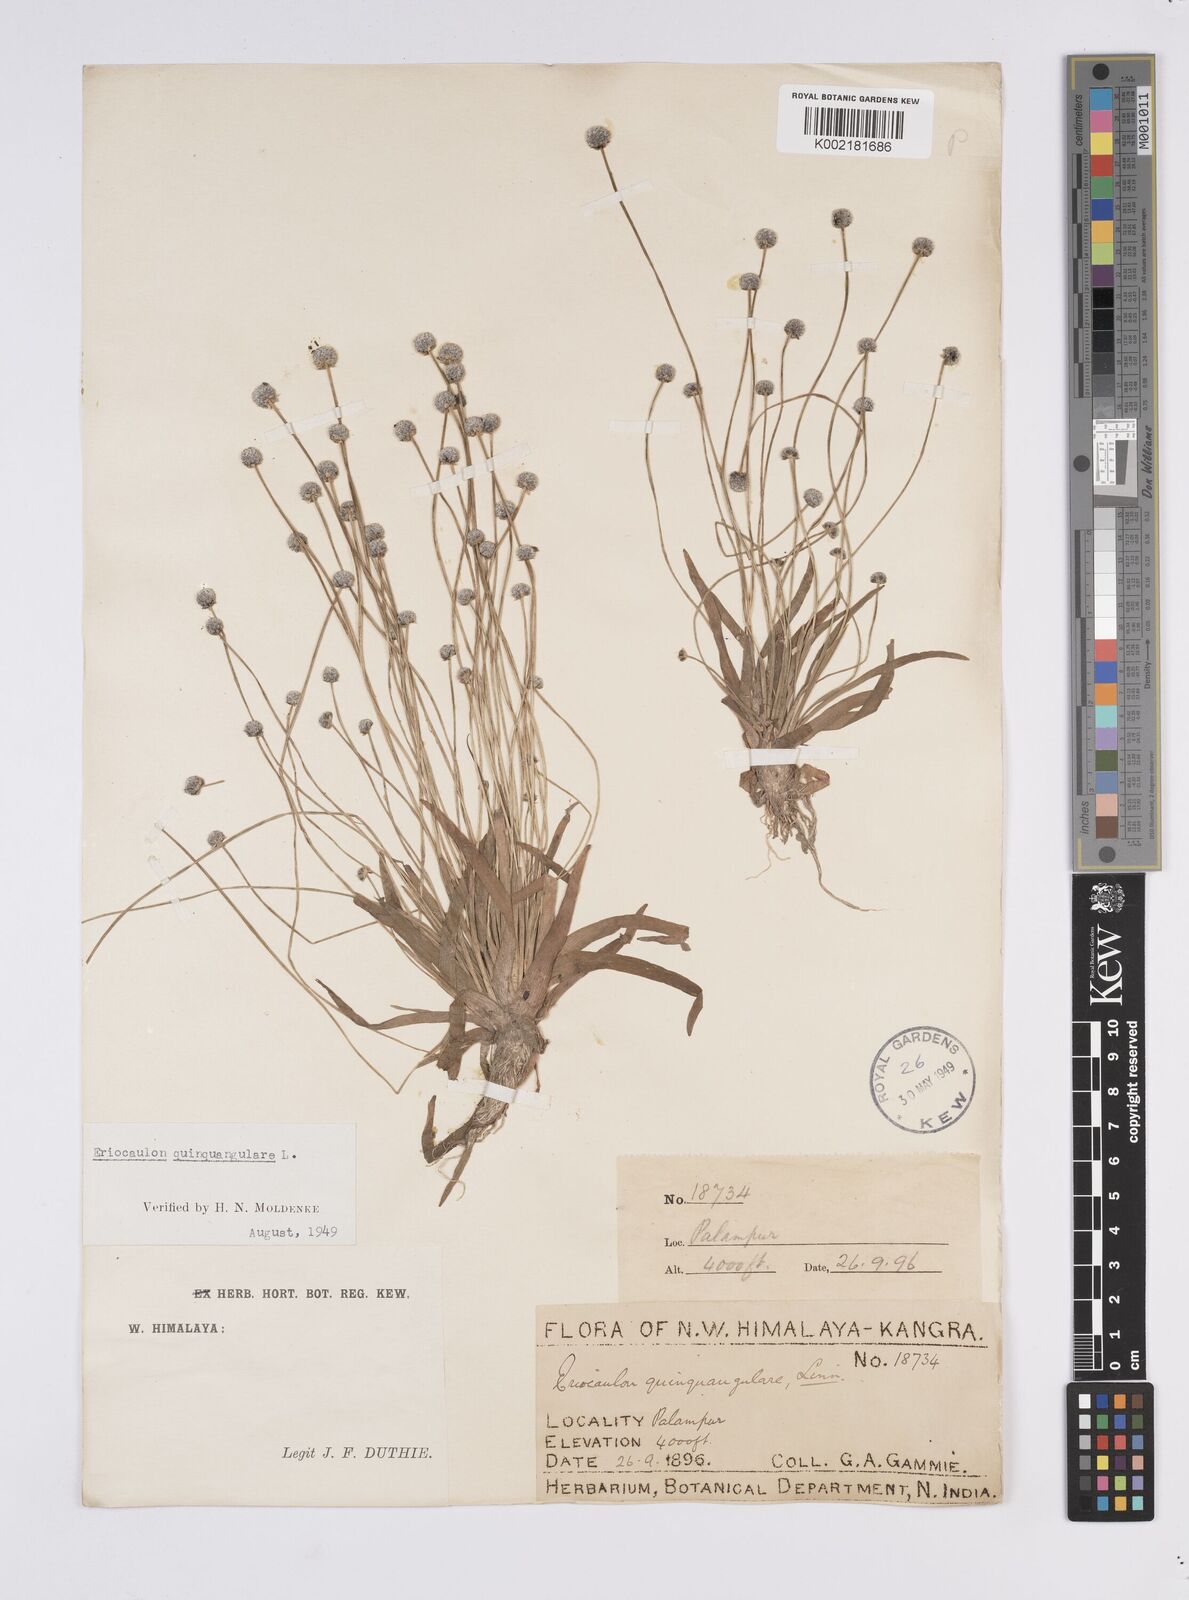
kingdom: Plantae
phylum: Tracheophyta
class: Liliopsida
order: Poales
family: Eriocaulaceae
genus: Eriocaulon
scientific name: Eriocaulon quinquangulare
